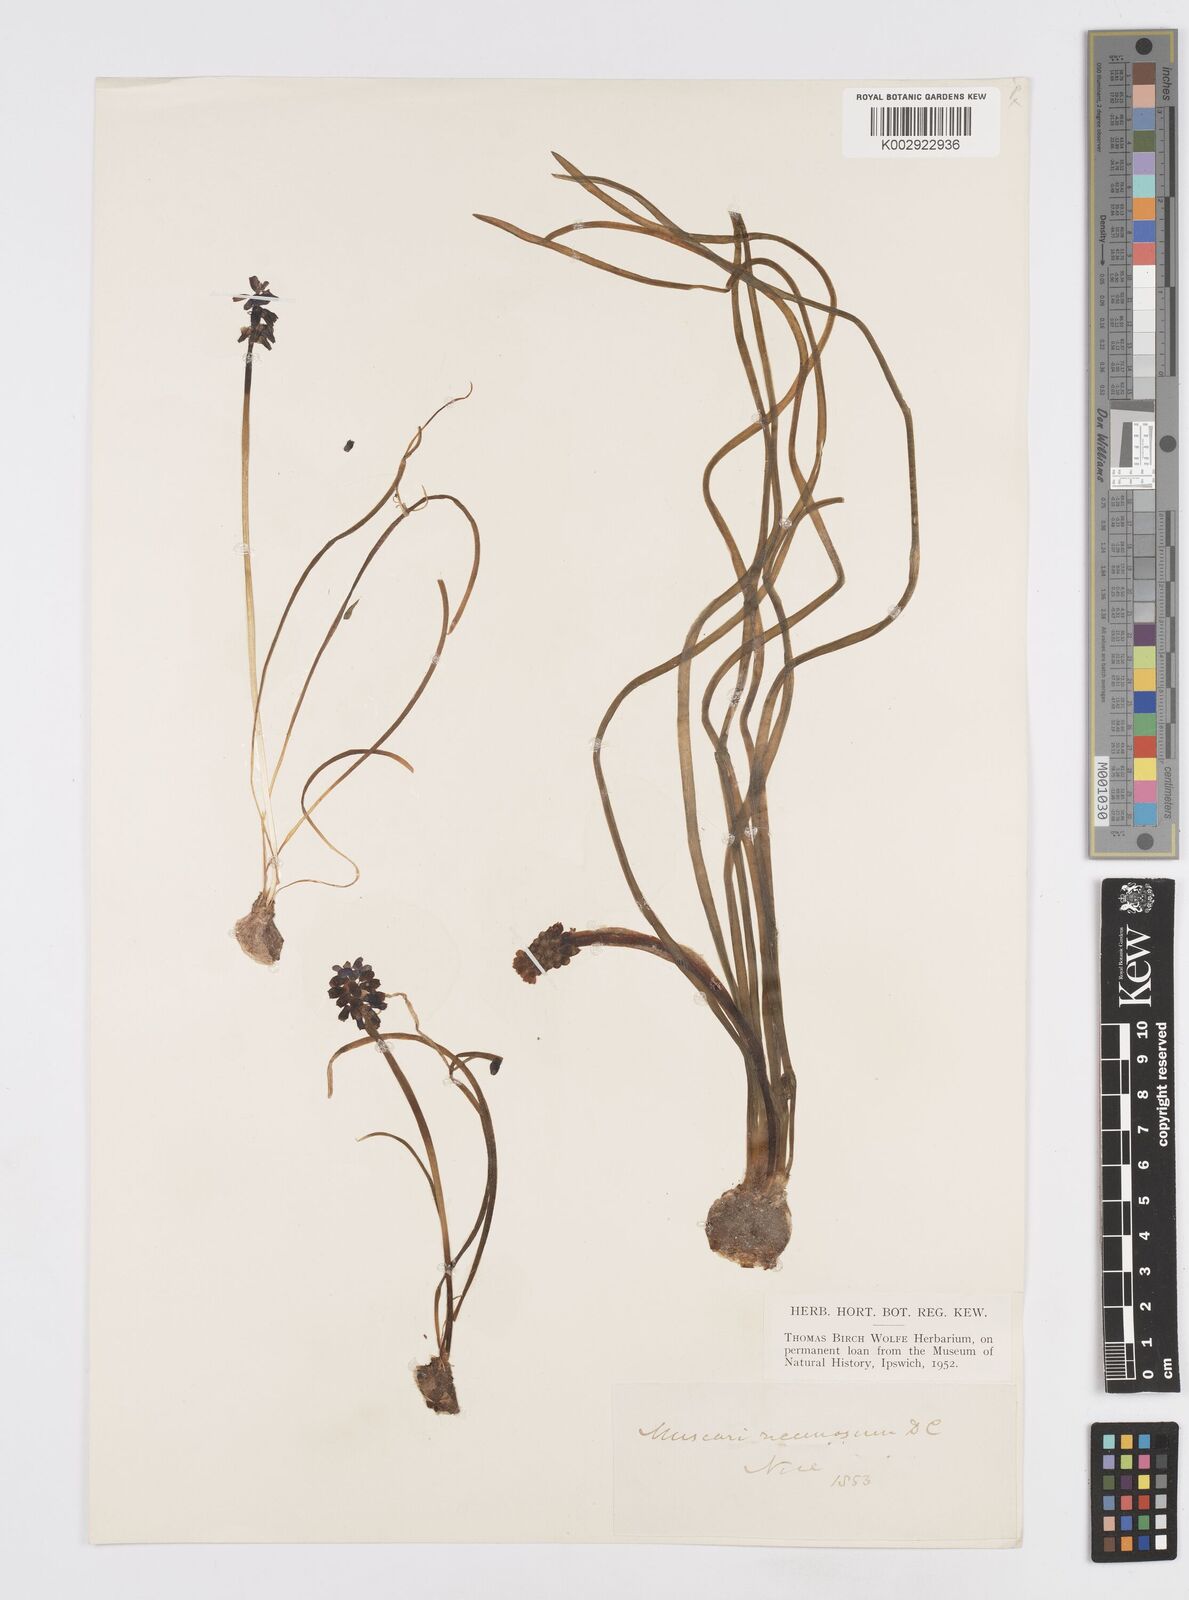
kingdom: Plantae
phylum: Tracheophyta
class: Liliopsida
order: Asparagales
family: Asparagaceae
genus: Muscarimia
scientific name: Muscarimia muscari
